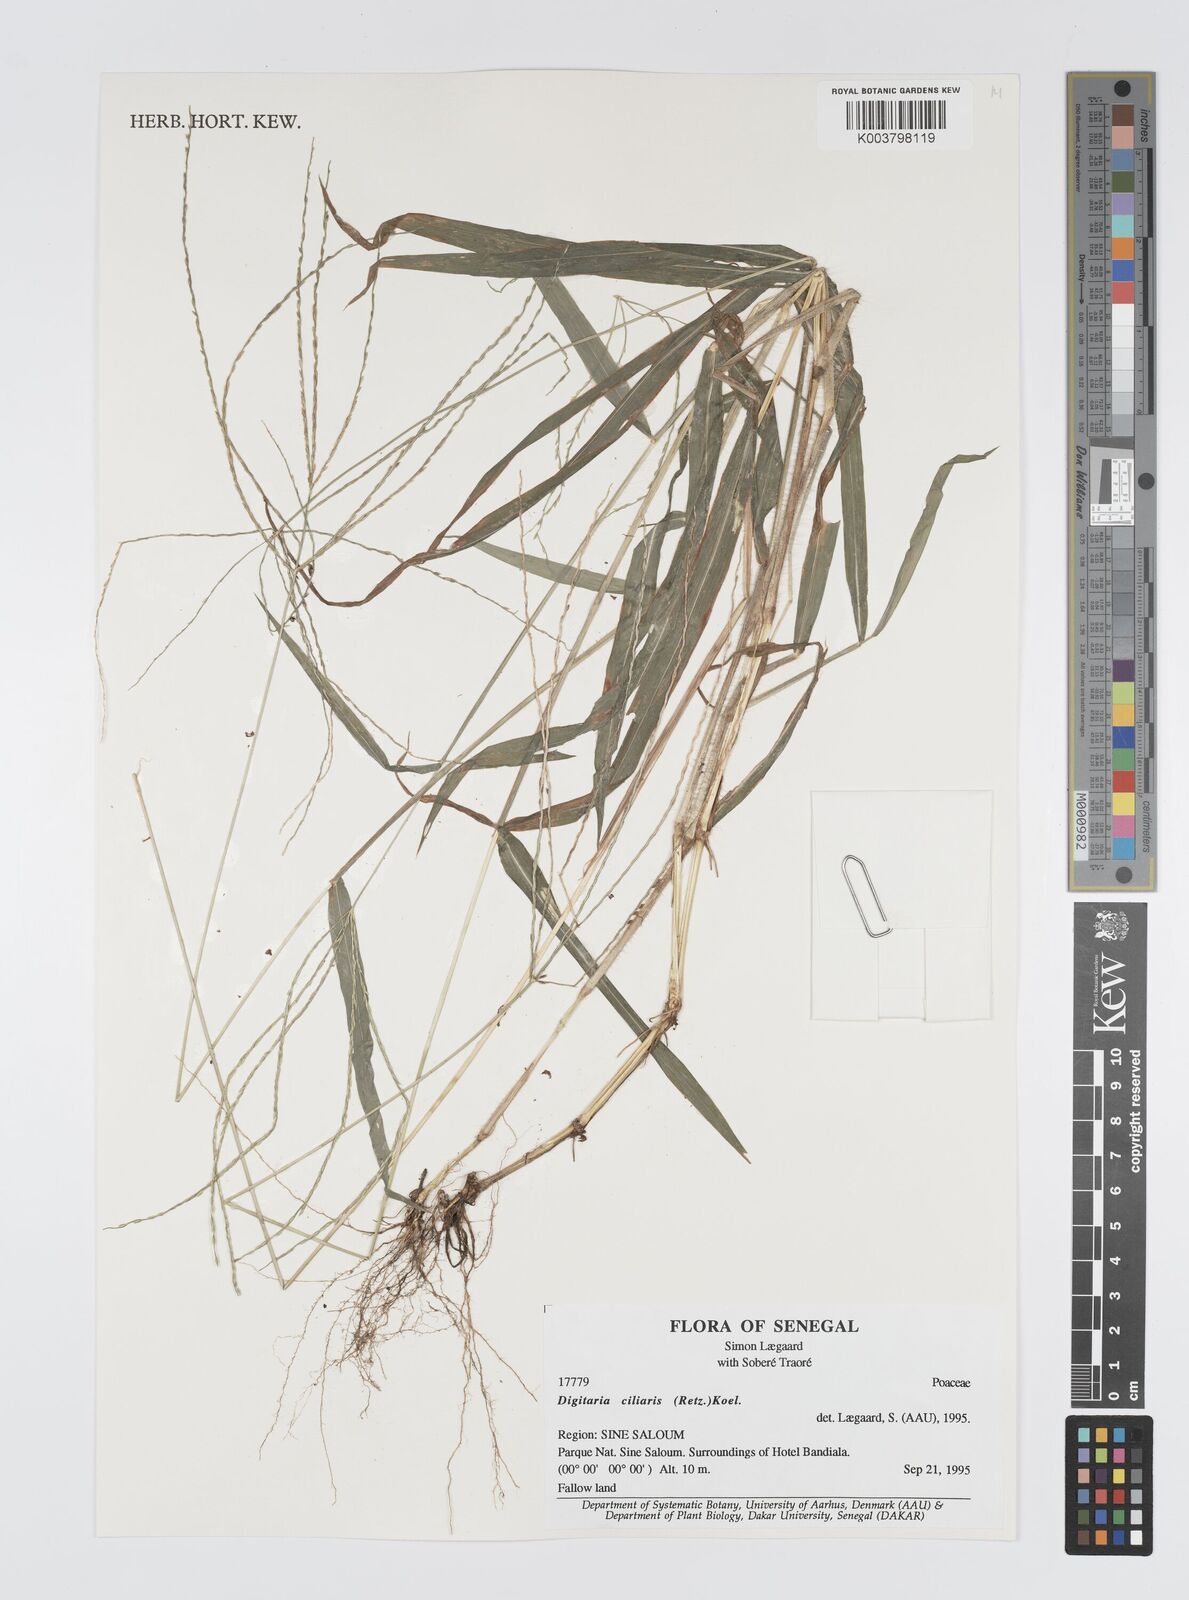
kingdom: Plantae
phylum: Tracheophyta
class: Liliopsida
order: Poales
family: Poaceae
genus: Digitaria
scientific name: Digitaria
